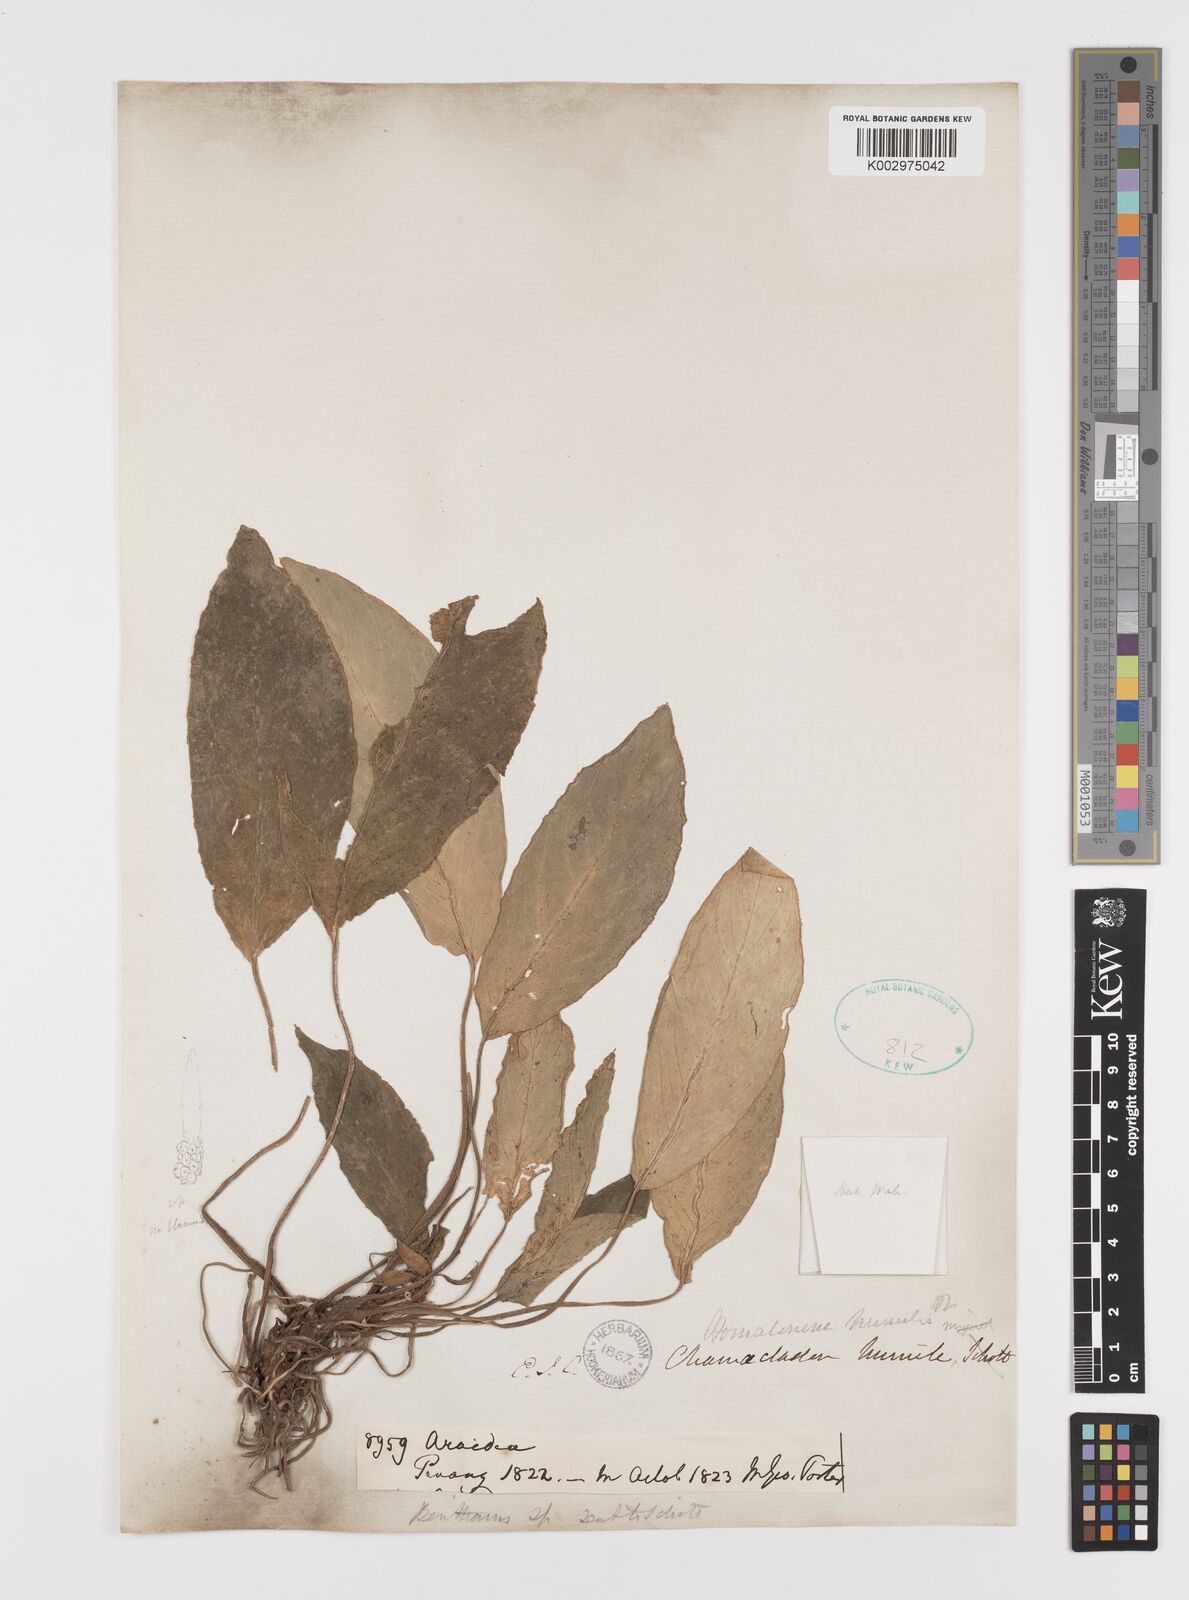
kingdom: Plantae
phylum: Tracheophyta
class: Liliopsida
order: Alismatales
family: Araceae
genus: Homalomena
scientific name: Homalomena humilis
